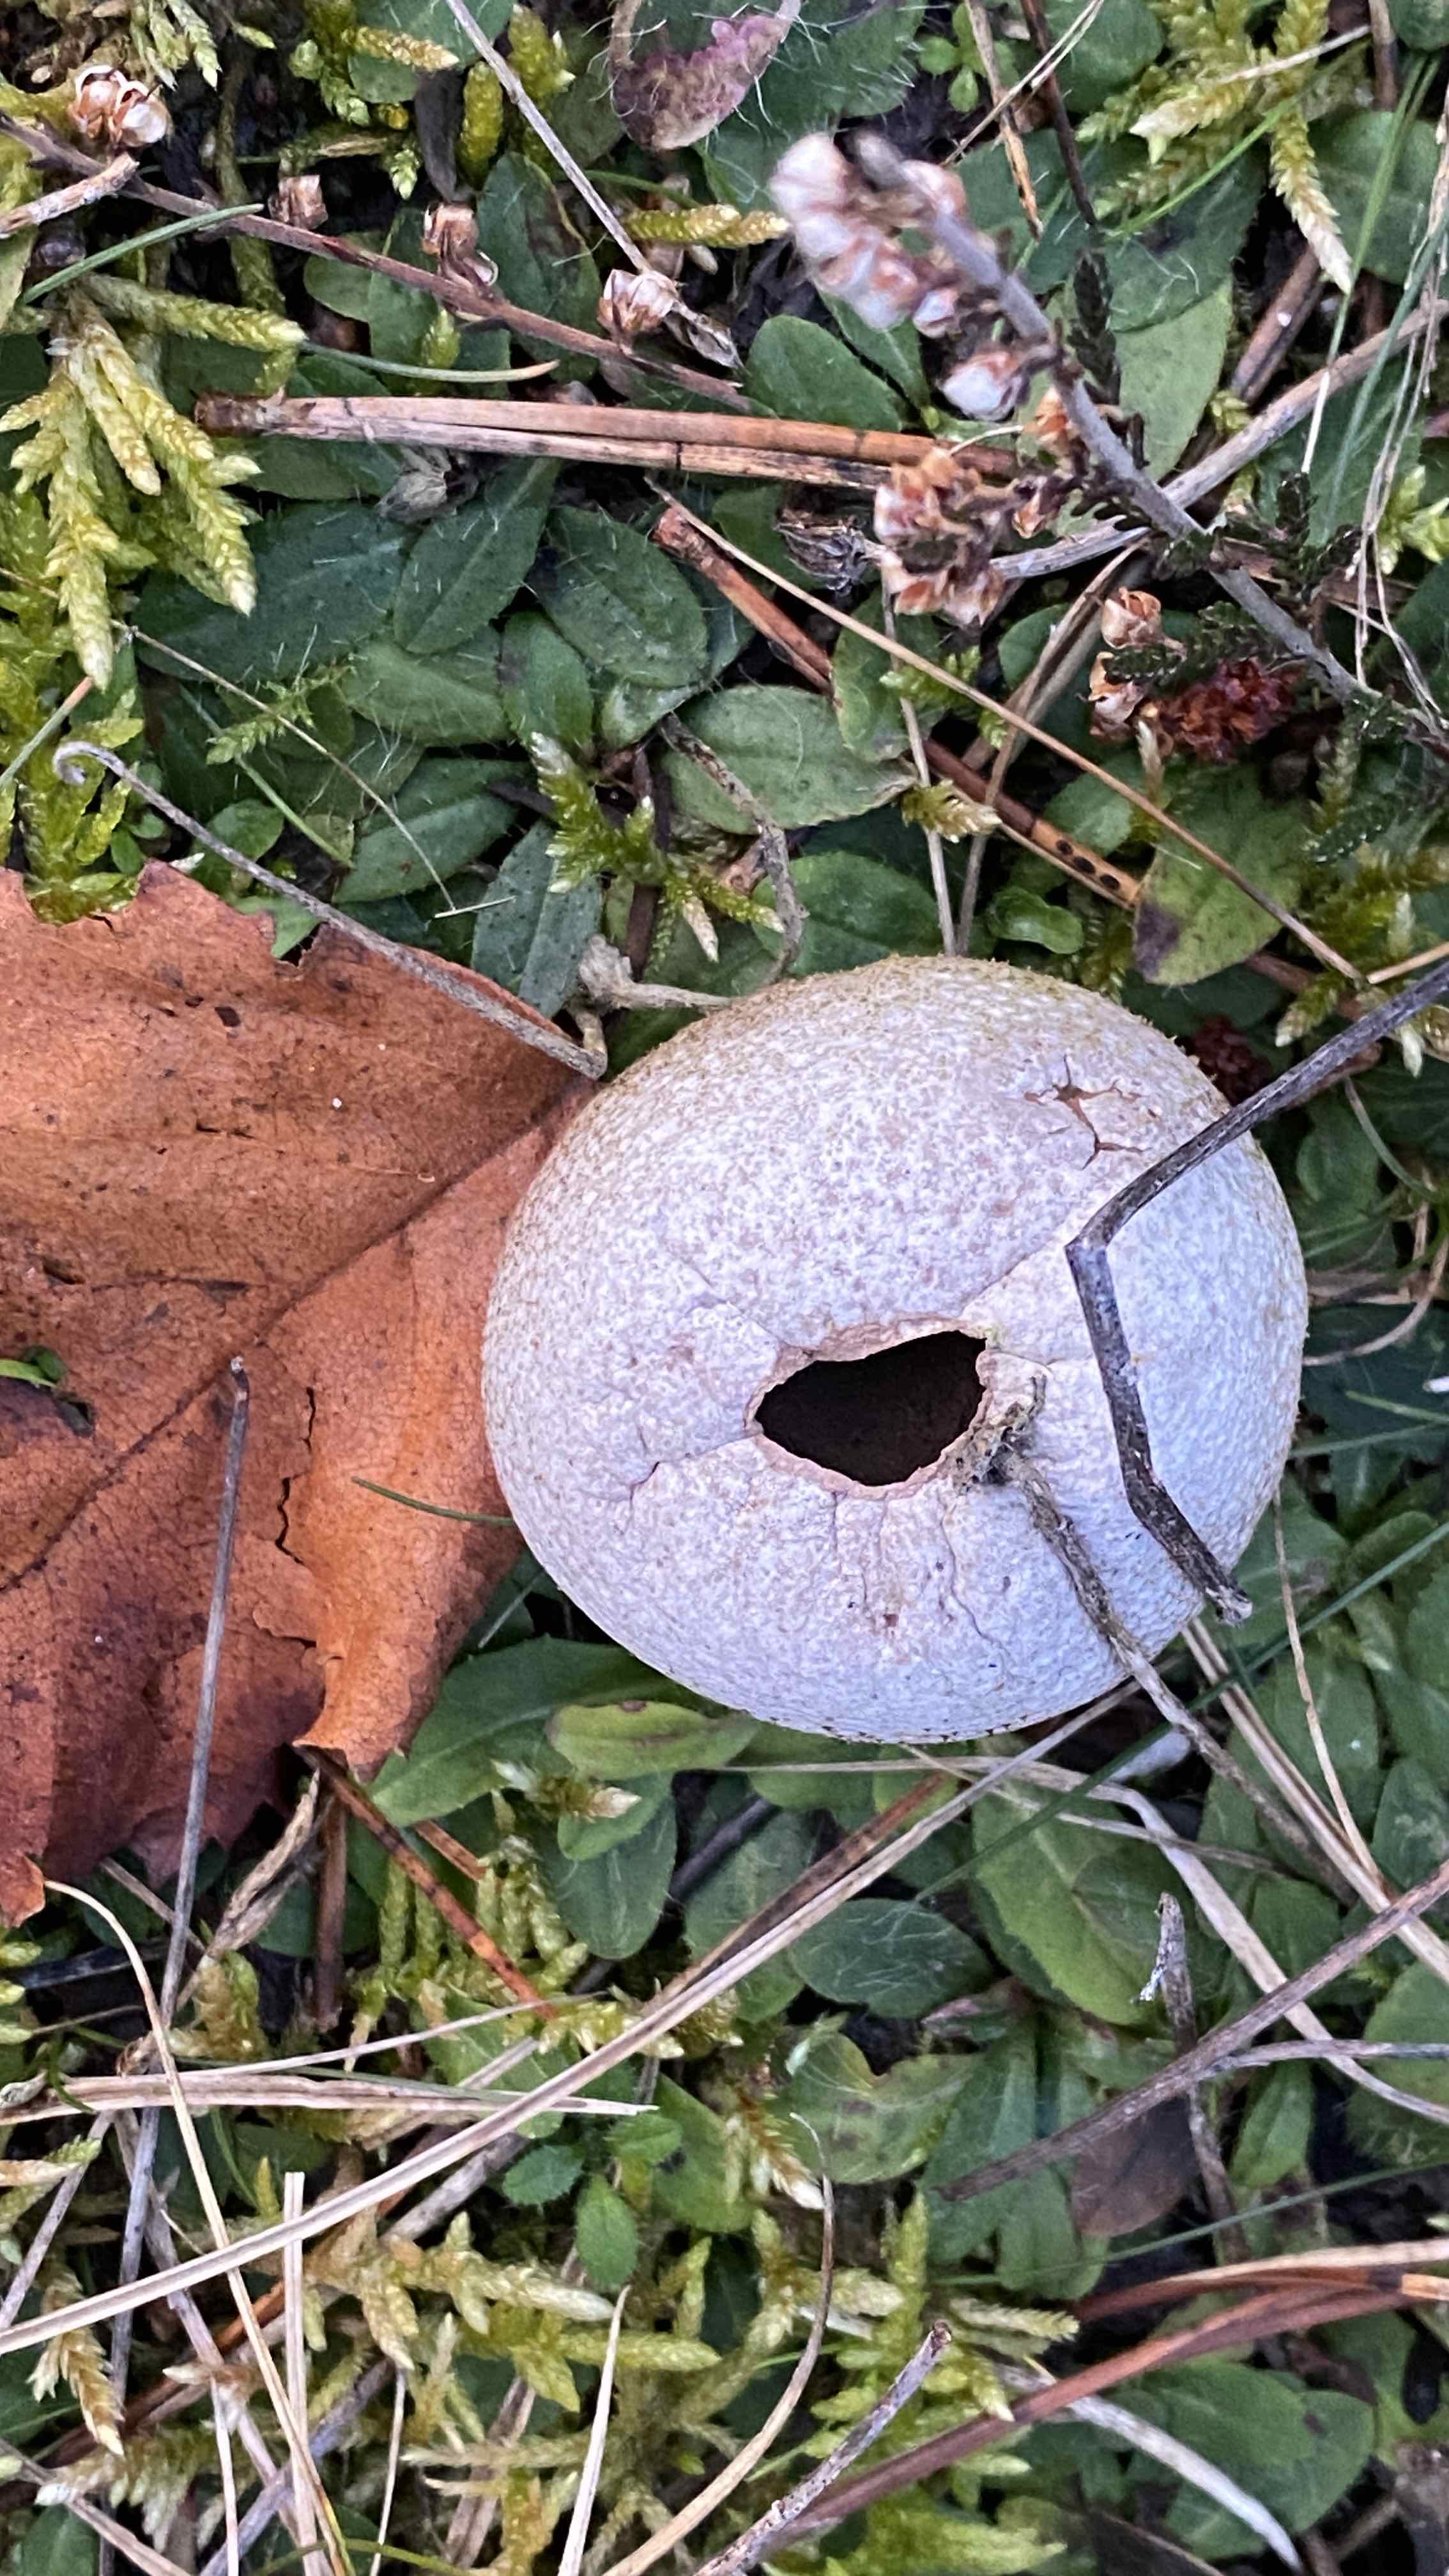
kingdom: Fungi
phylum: Basidiomycota
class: Agaricomycetes
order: Agaricales
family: Agaricaceae
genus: Lycoperdon
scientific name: Lycoperdon
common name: støvbold
